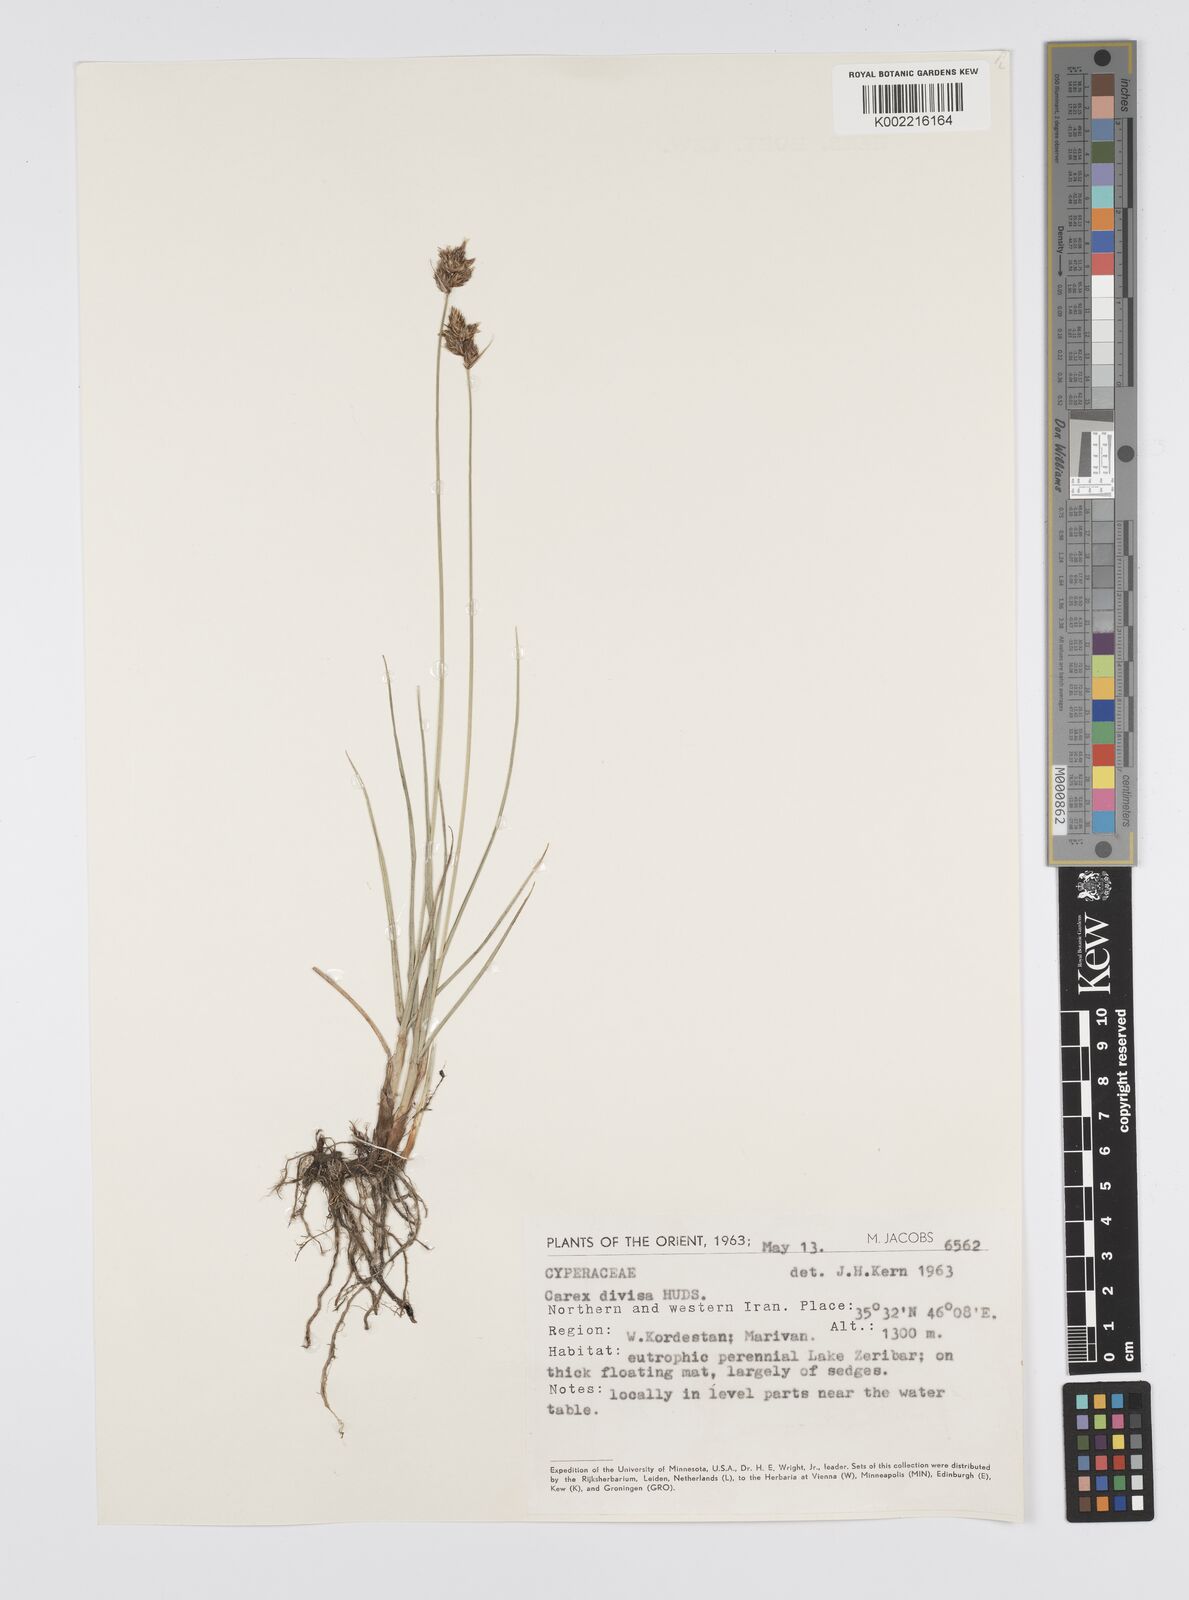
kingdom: Plantae
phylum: Tracheophyta
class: Liliopsida
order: Poales
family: Cyperaceae
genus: Carex
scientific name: Carex divisa
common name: Divided sedge
